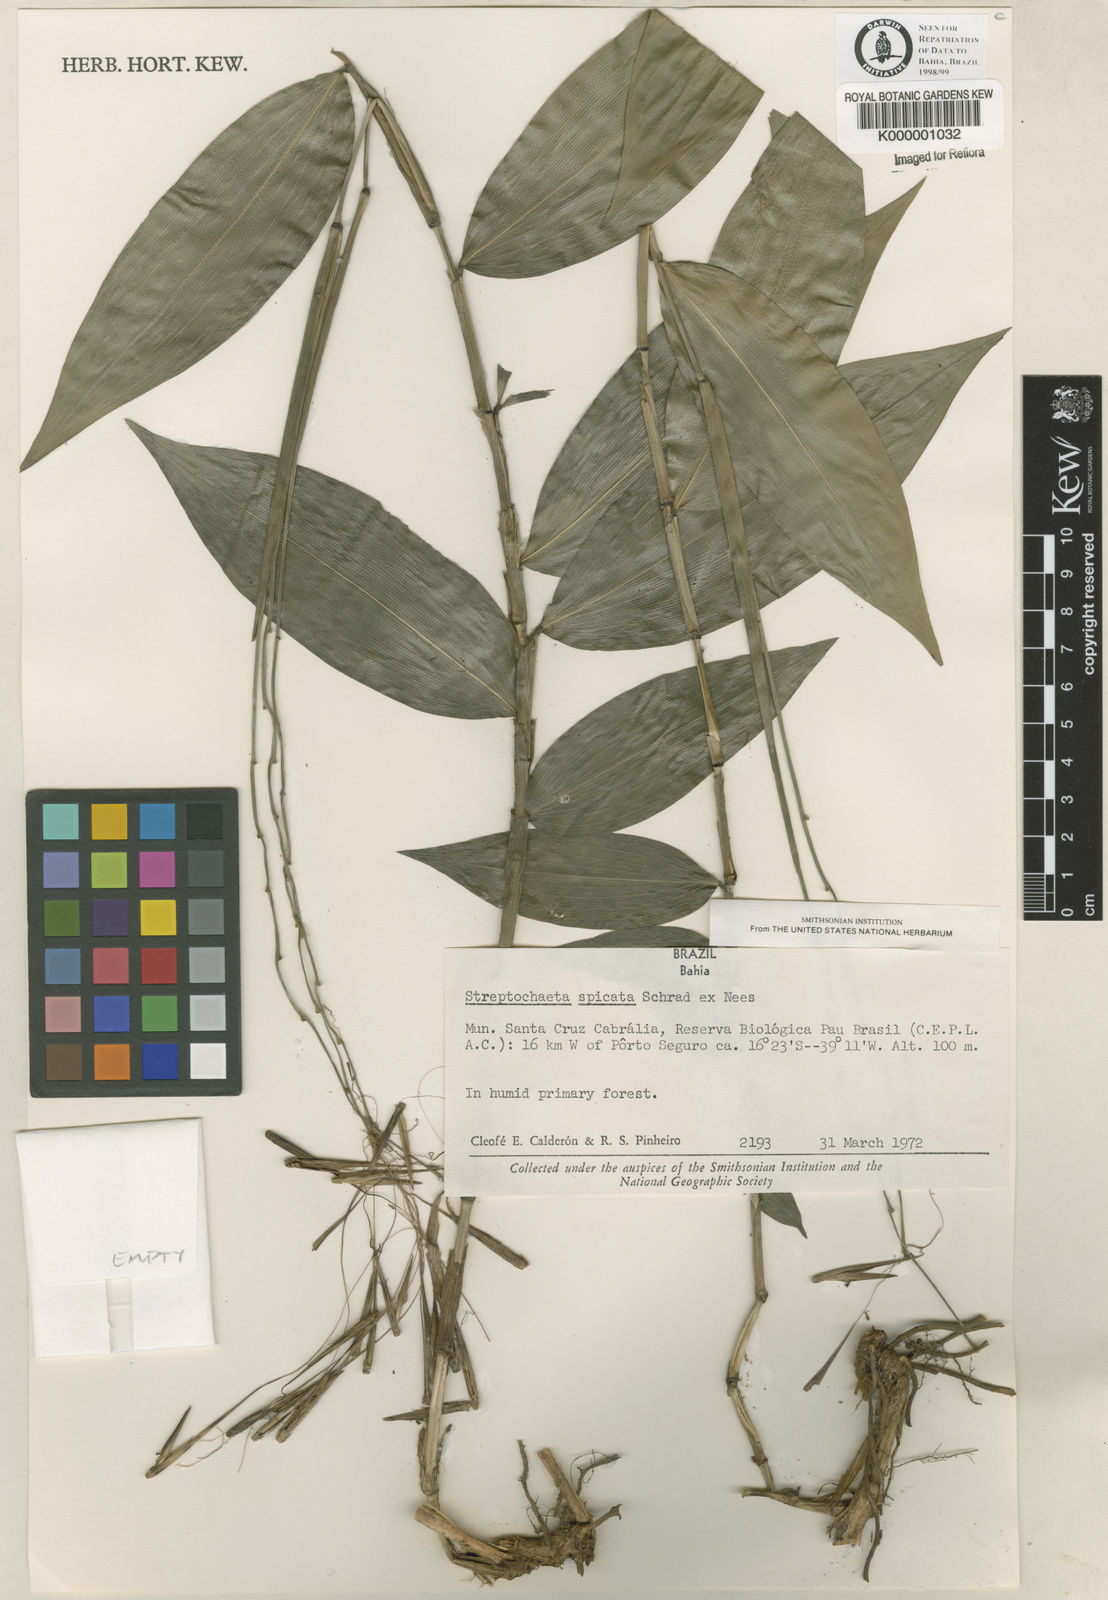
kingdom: Plantae
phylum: Tracheophyta
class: Liliopsida
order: Poales
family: Poaceae
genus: Streptochaeta
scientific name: Streptochaeta spicata
